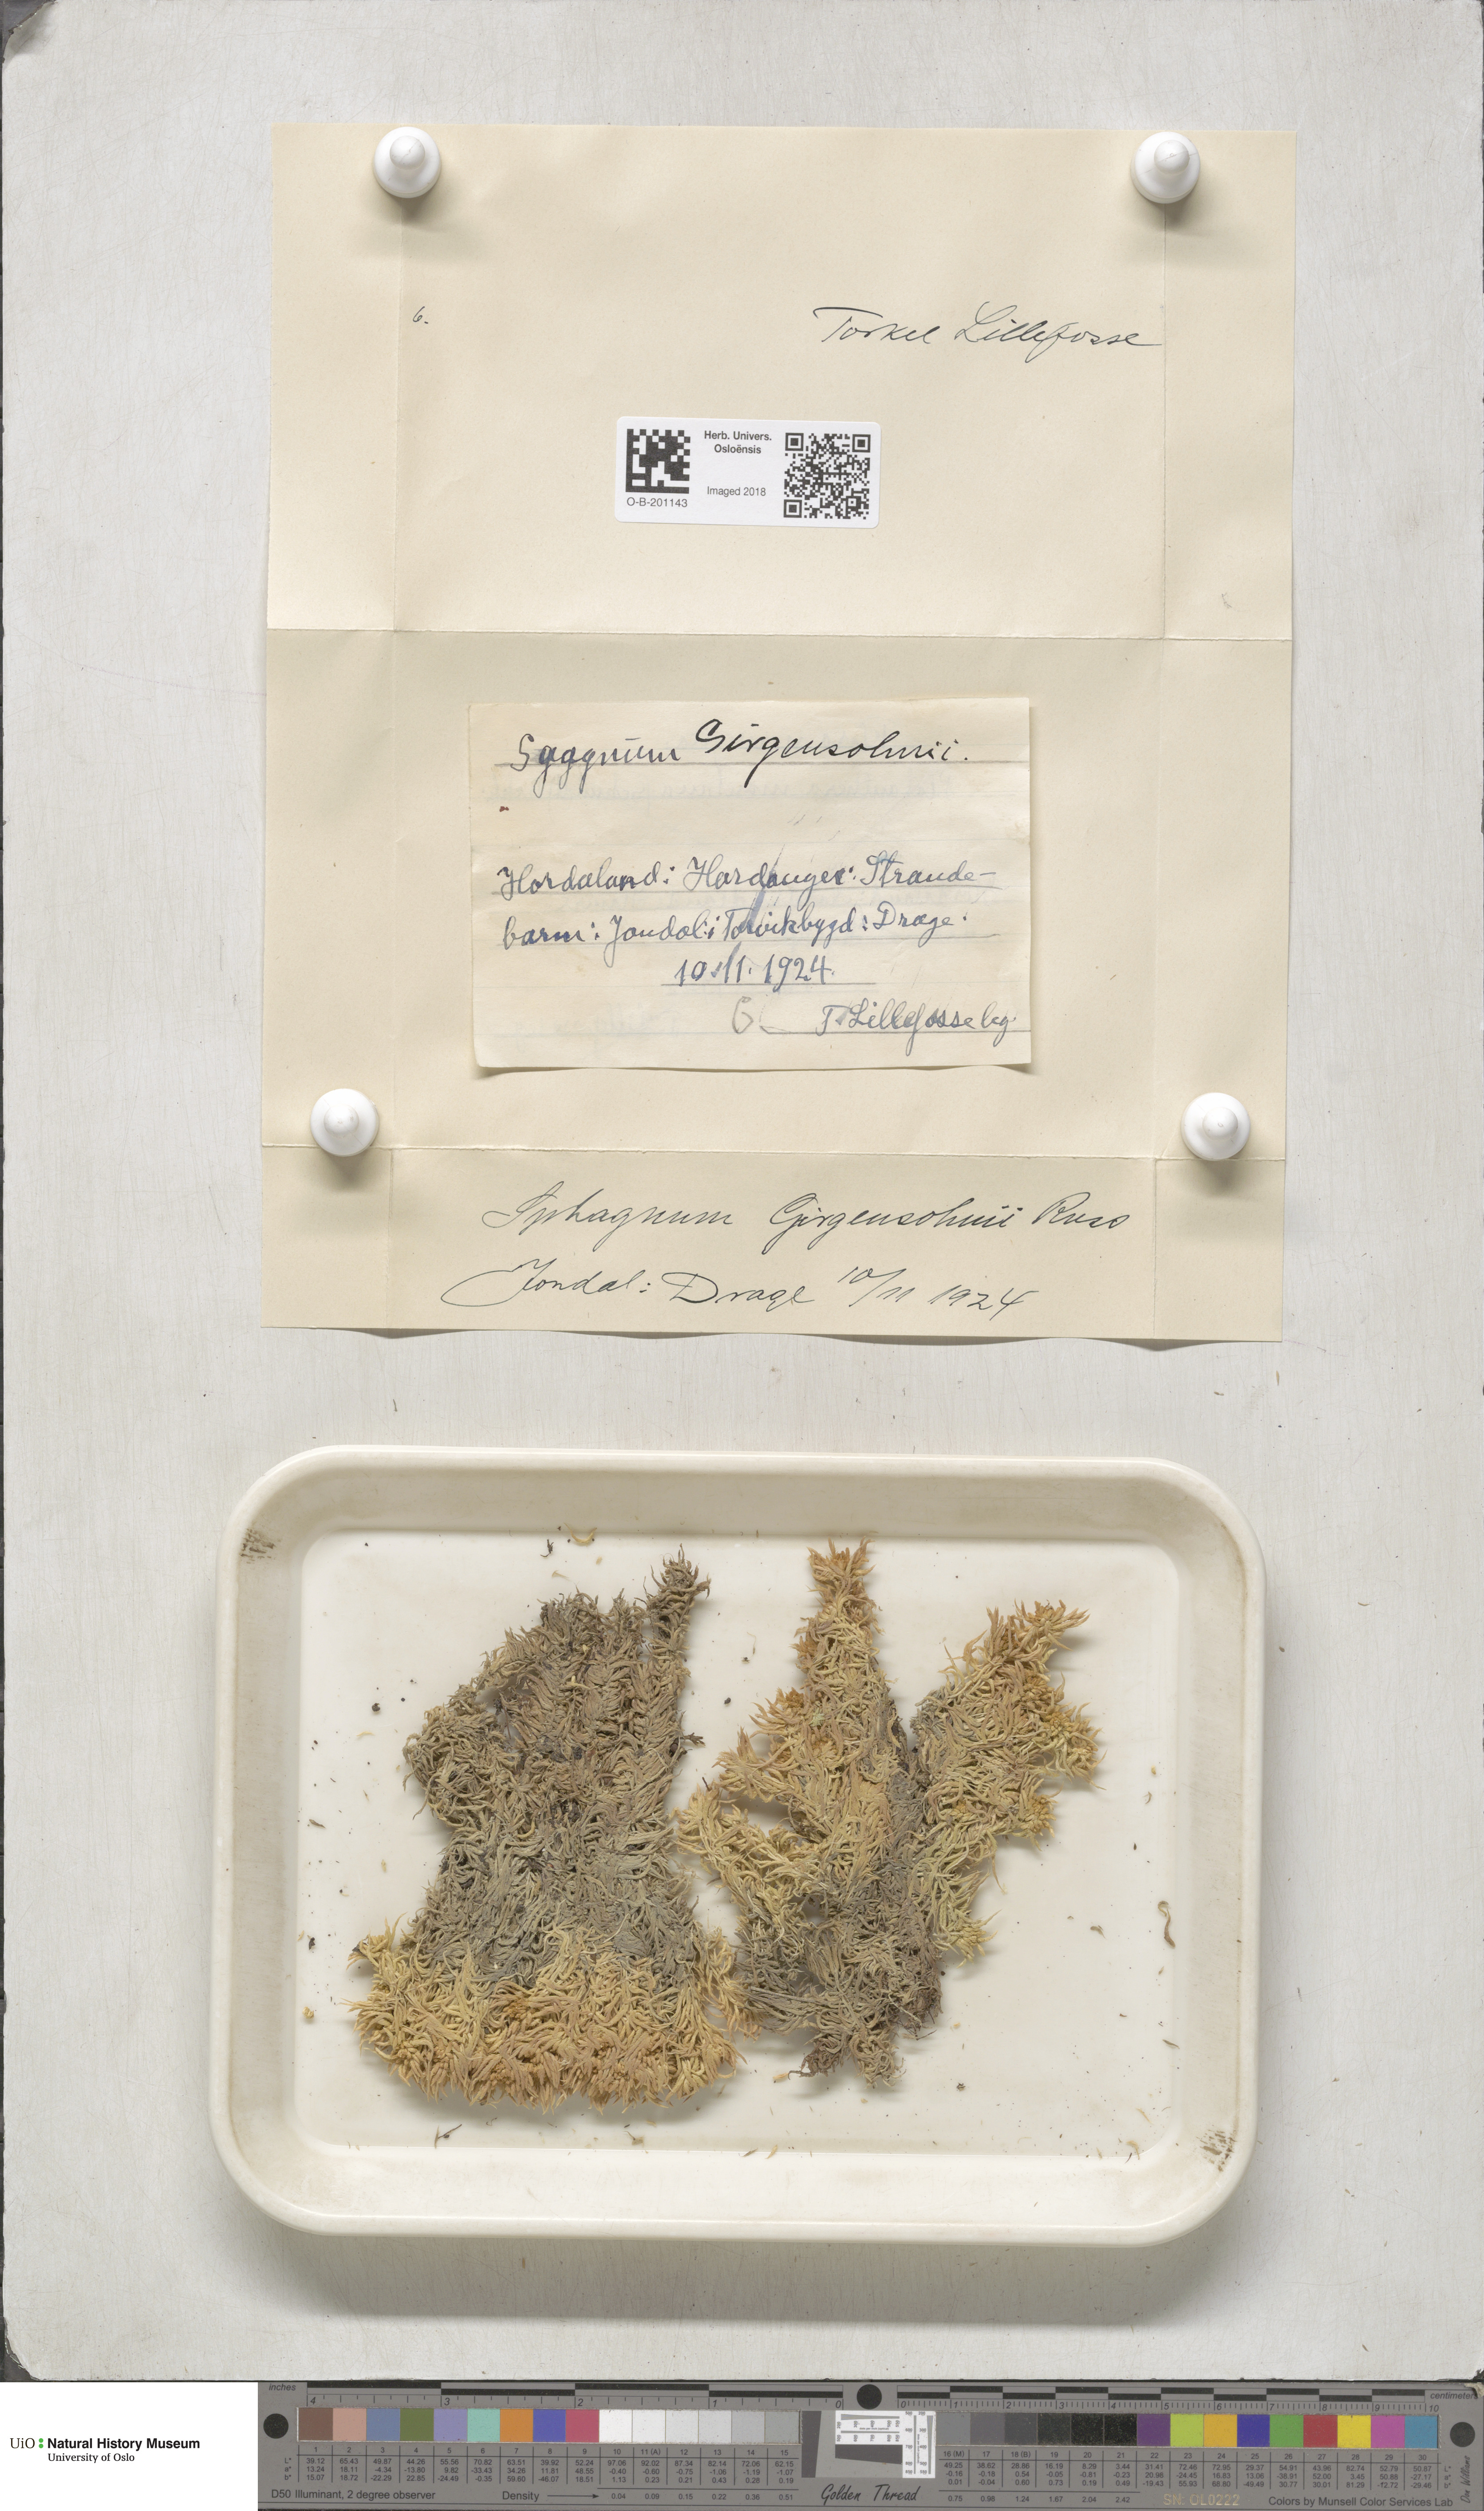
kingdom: Plantae
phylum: Bryophyta
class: Sphagnopsida
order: Sphagnales
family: Sphagnaceae
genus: Sphagnum
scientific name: Sphagnum girgensohnii
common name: Girgensohn's peat moss
